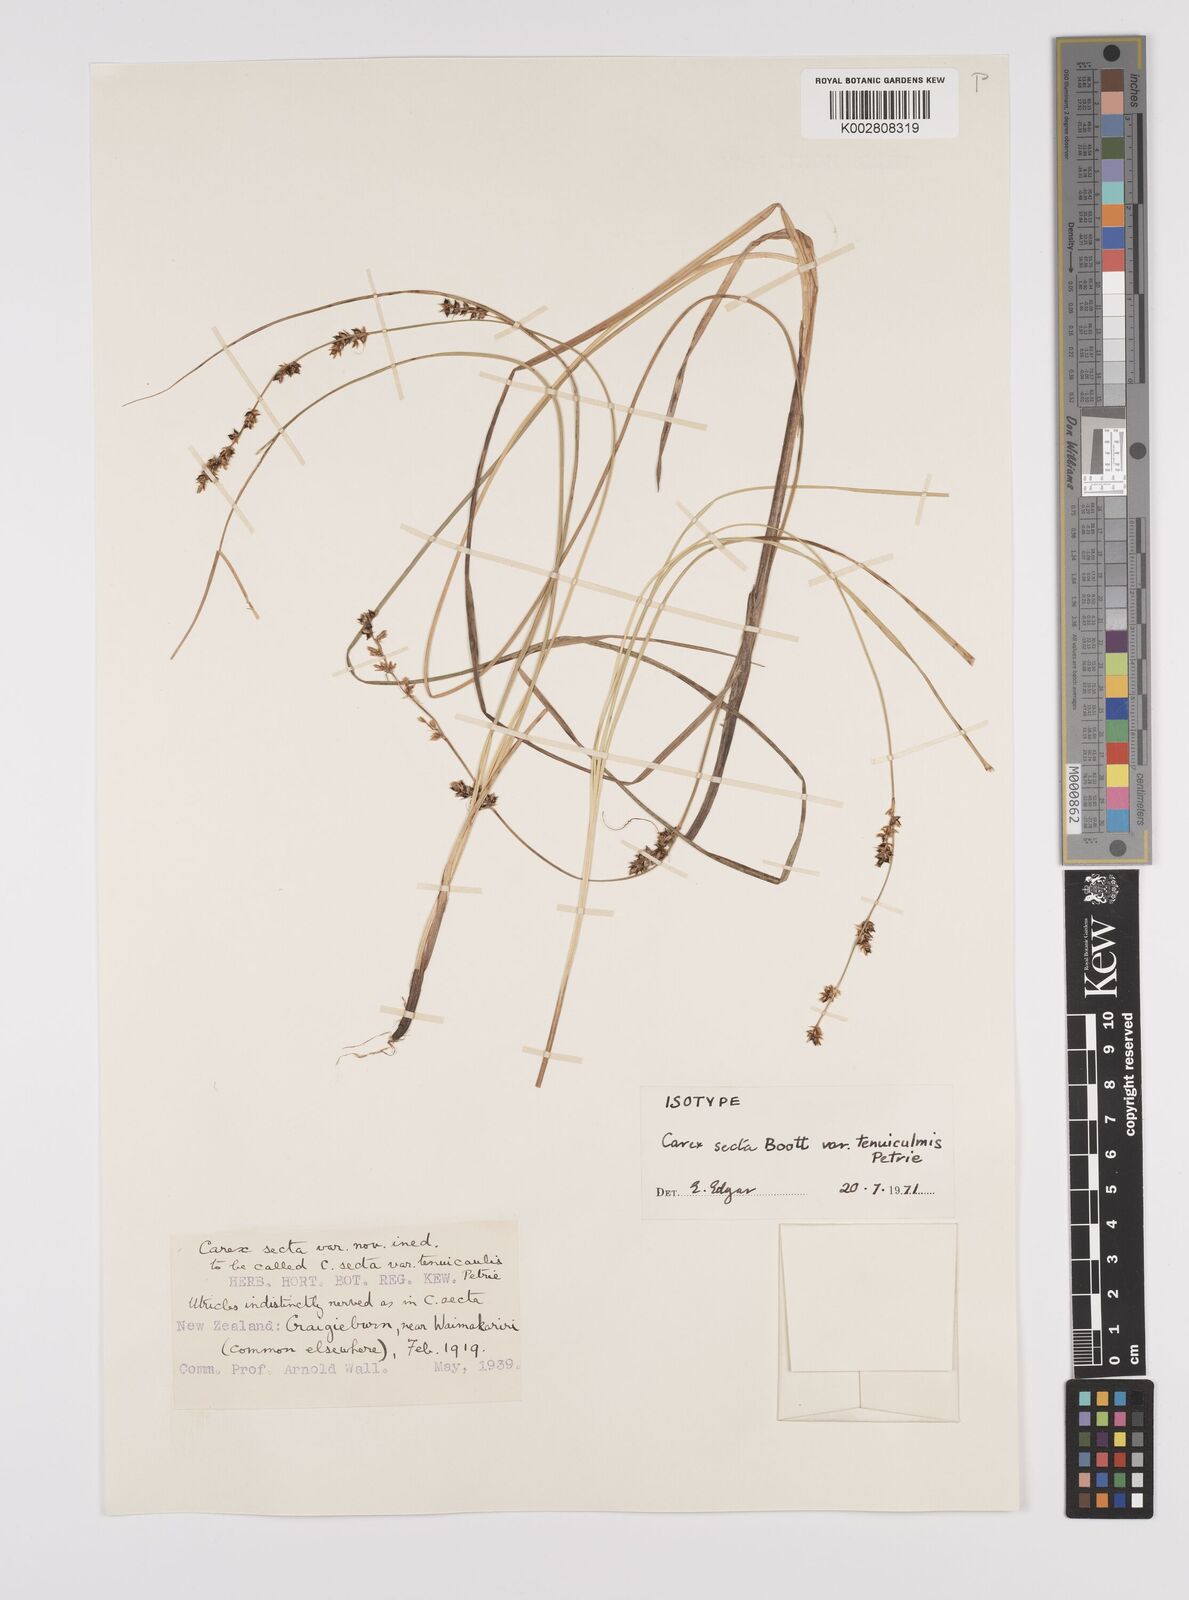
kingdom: Plantae
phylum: Tracheophyta
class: Liliopsida
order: Poales
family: Cyperaceae
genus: Carex
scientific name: Carex appressa
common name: Tussock sedge
